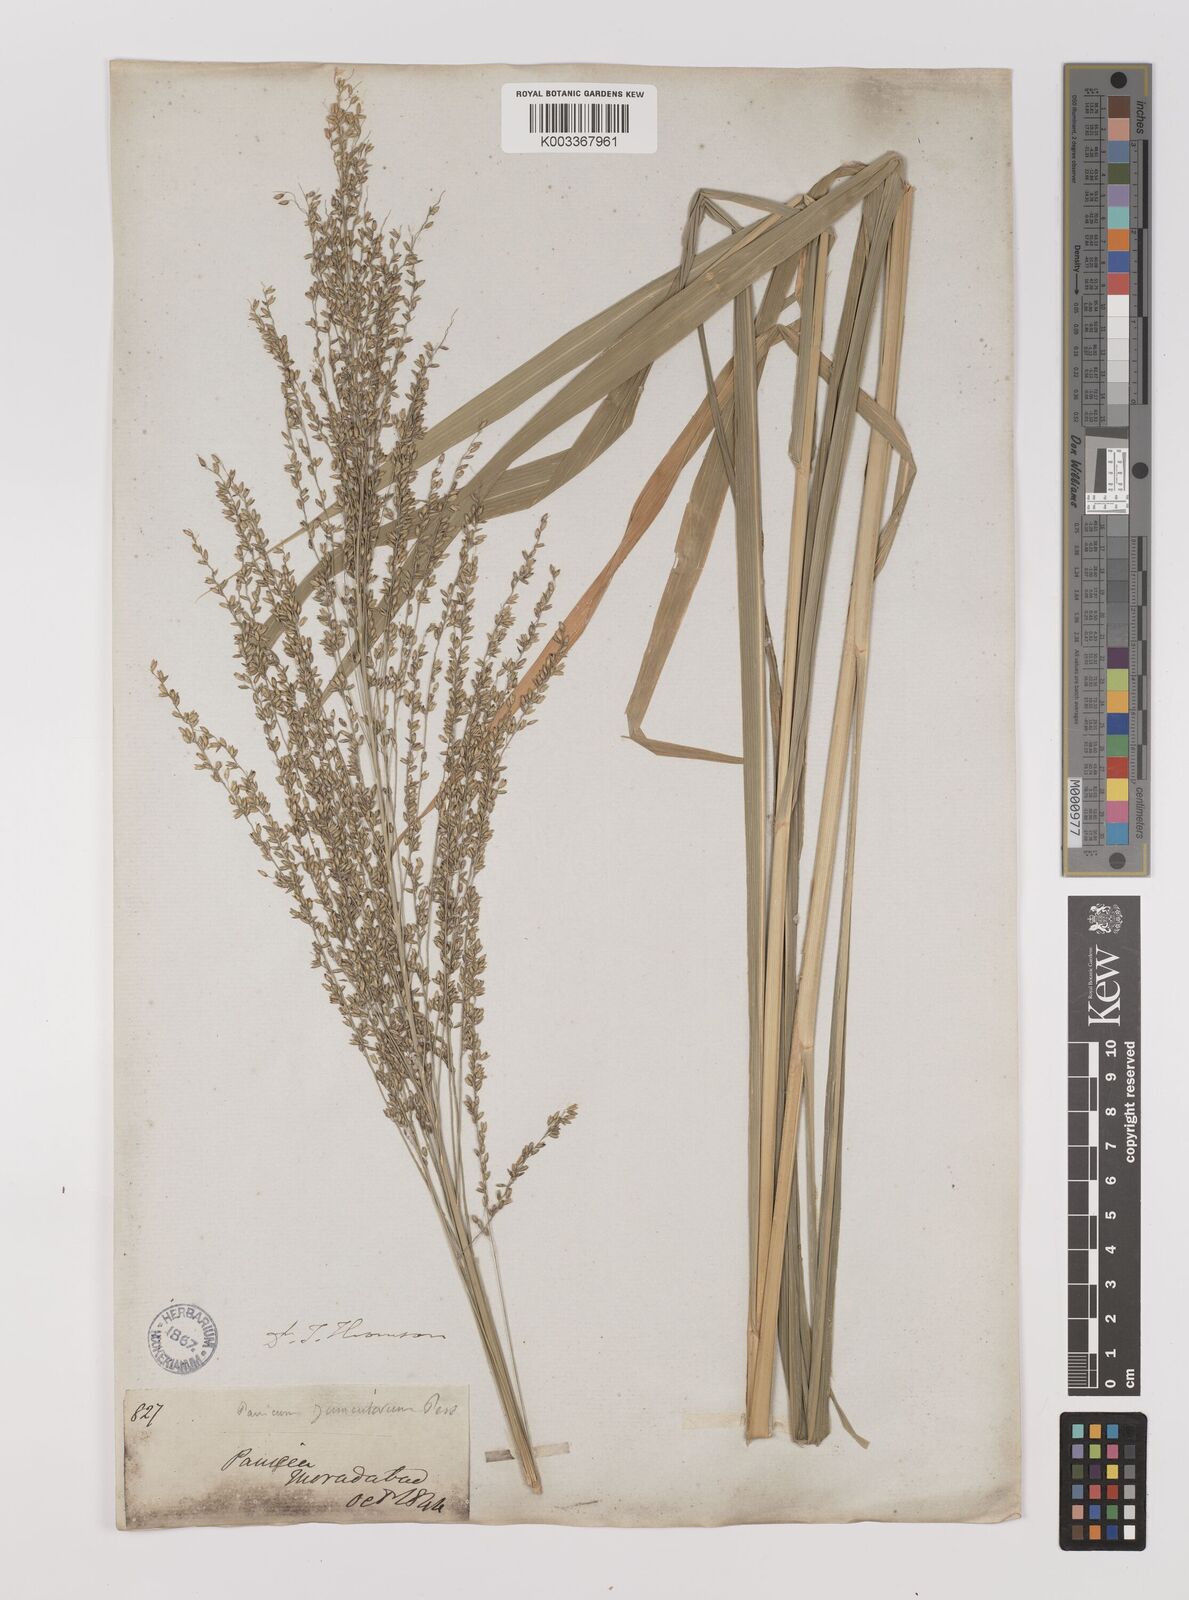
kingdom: Plantae
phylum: Tracheophyta
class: Liliopsida
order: Poales
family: Poaceae
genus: Megathyrsus
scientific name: Megathyrsus maximus
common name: Guineagrass
